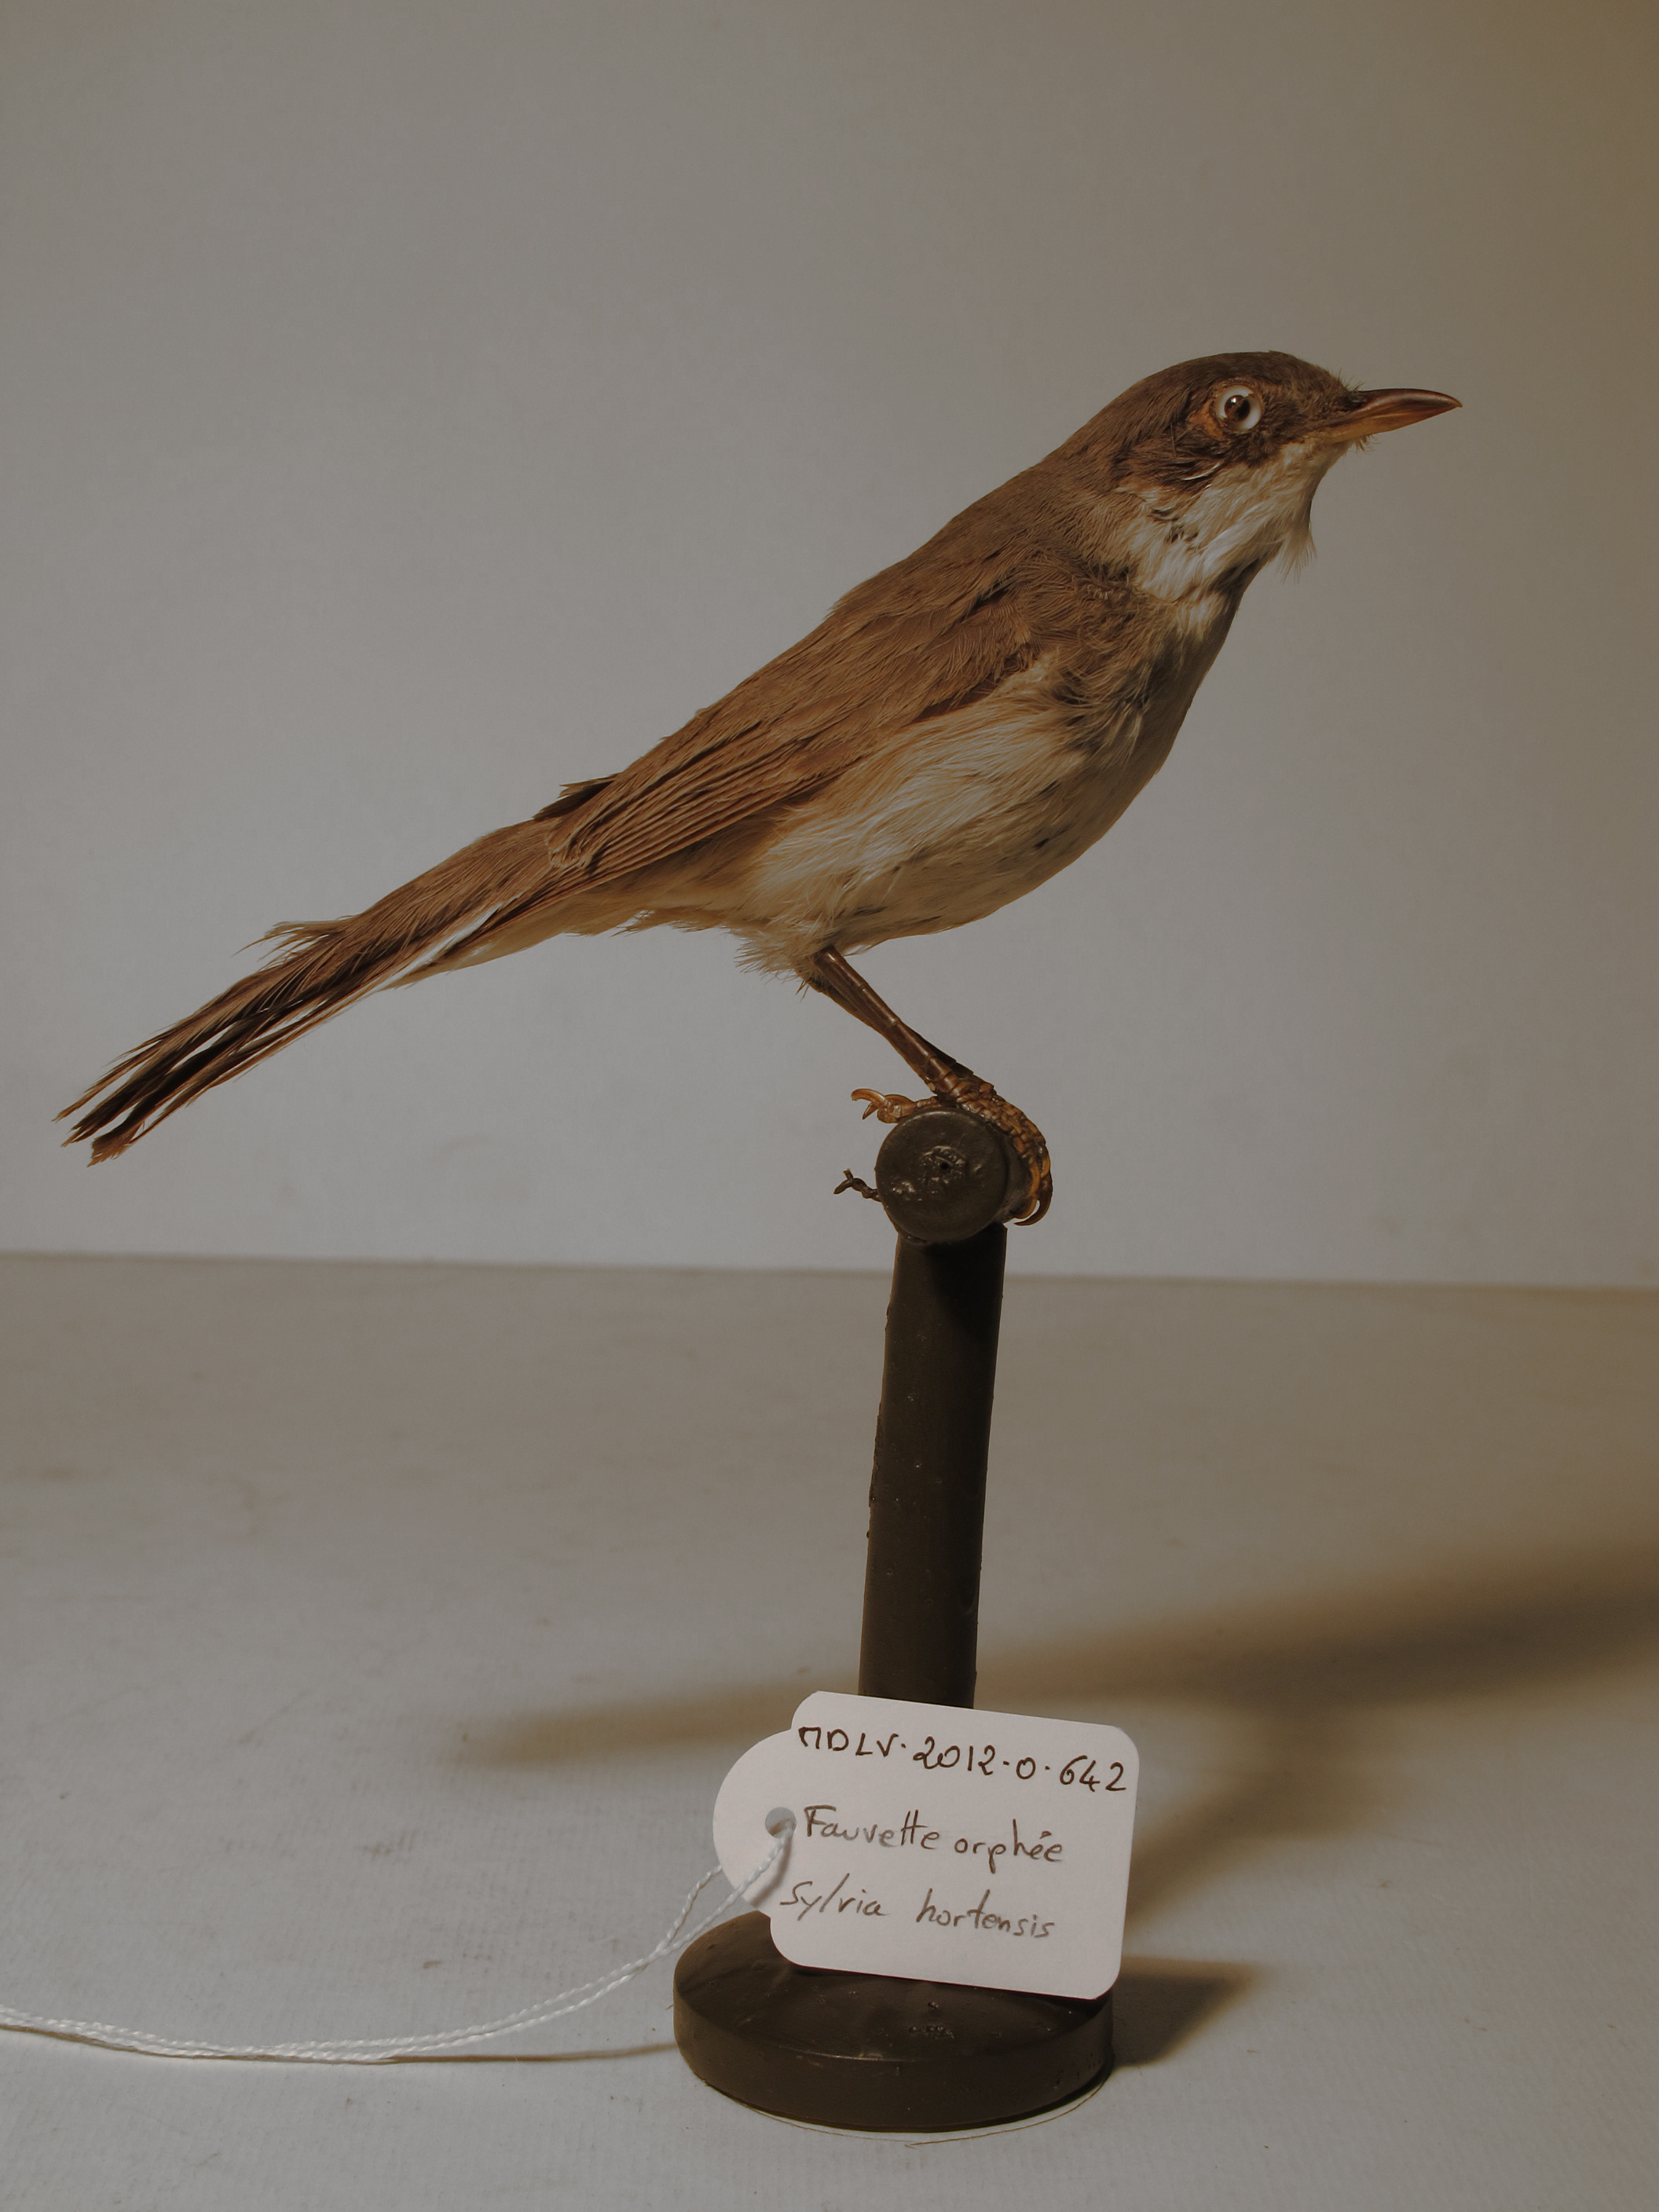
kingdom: Animalia
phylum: Chordata
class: Aves
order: Passeriformes
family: Sylviidae
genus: Sylvia
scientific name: Sylvia hortensis
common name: Orphean Warbler
